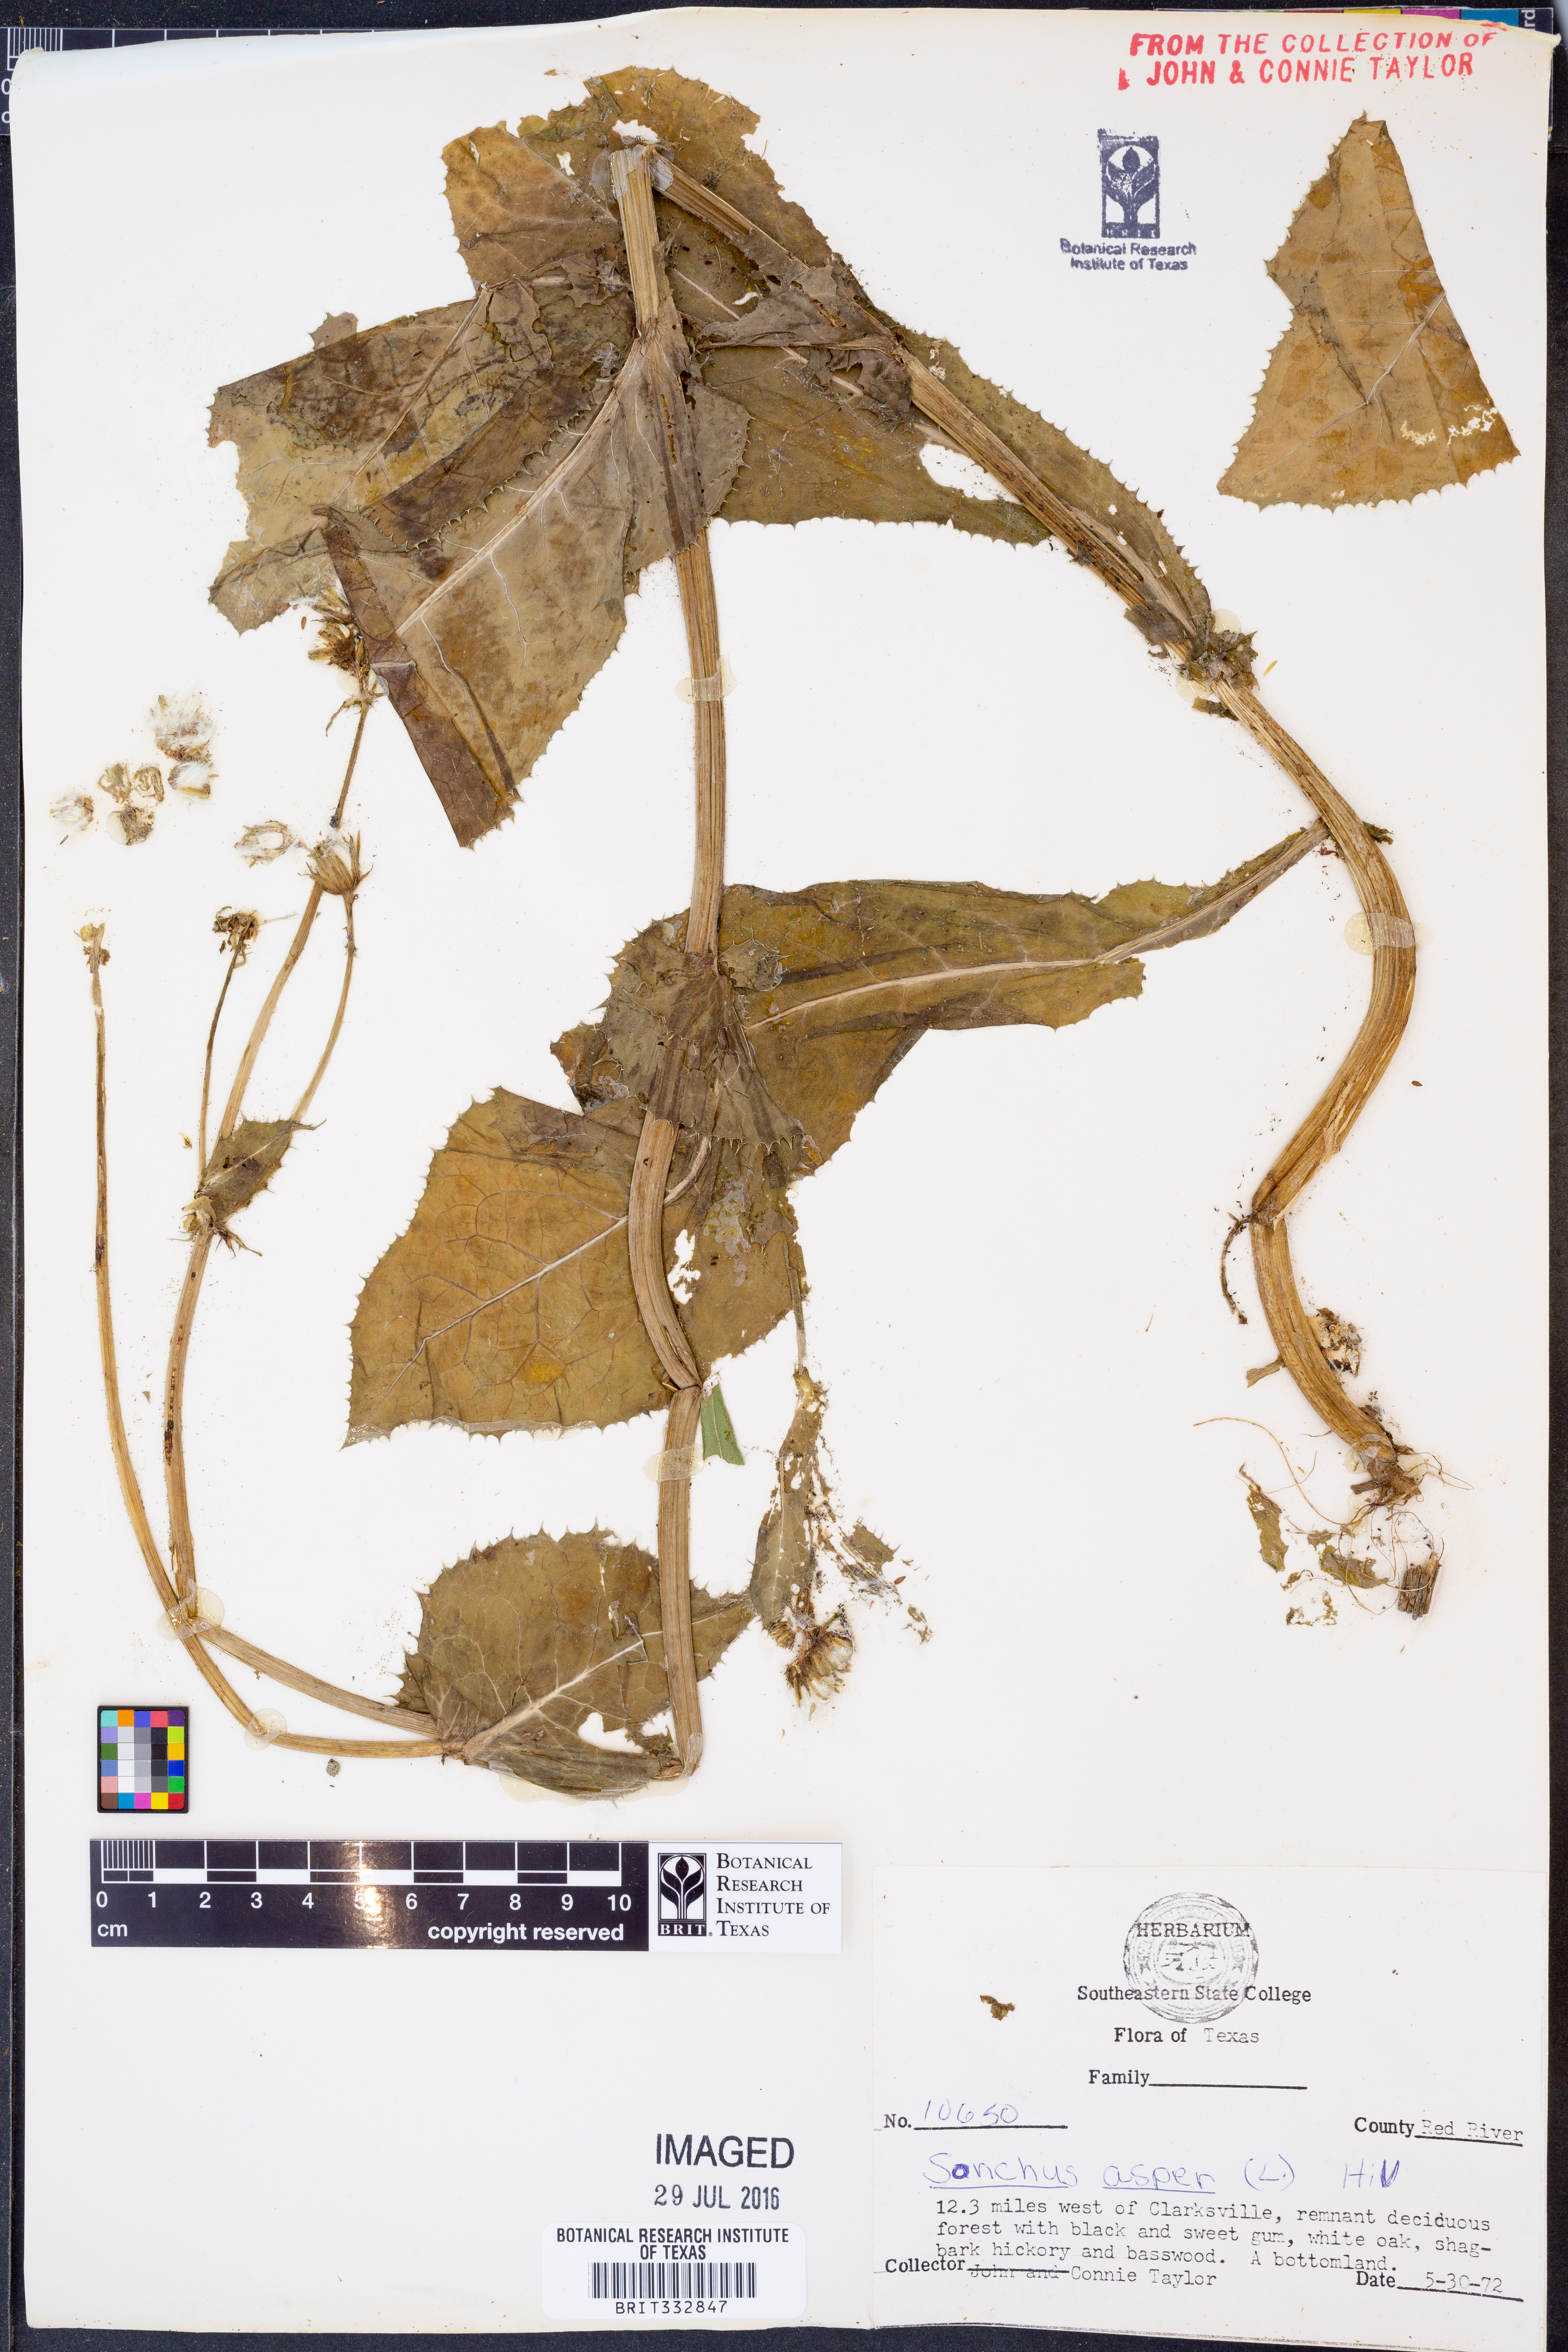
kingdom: Plantae
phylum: Tracheophyta
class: Magnoliopsida
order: Asterales
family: Asteraceae
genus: Sonchus
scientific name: Sonchus asper
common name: Prickly sow-thistle
